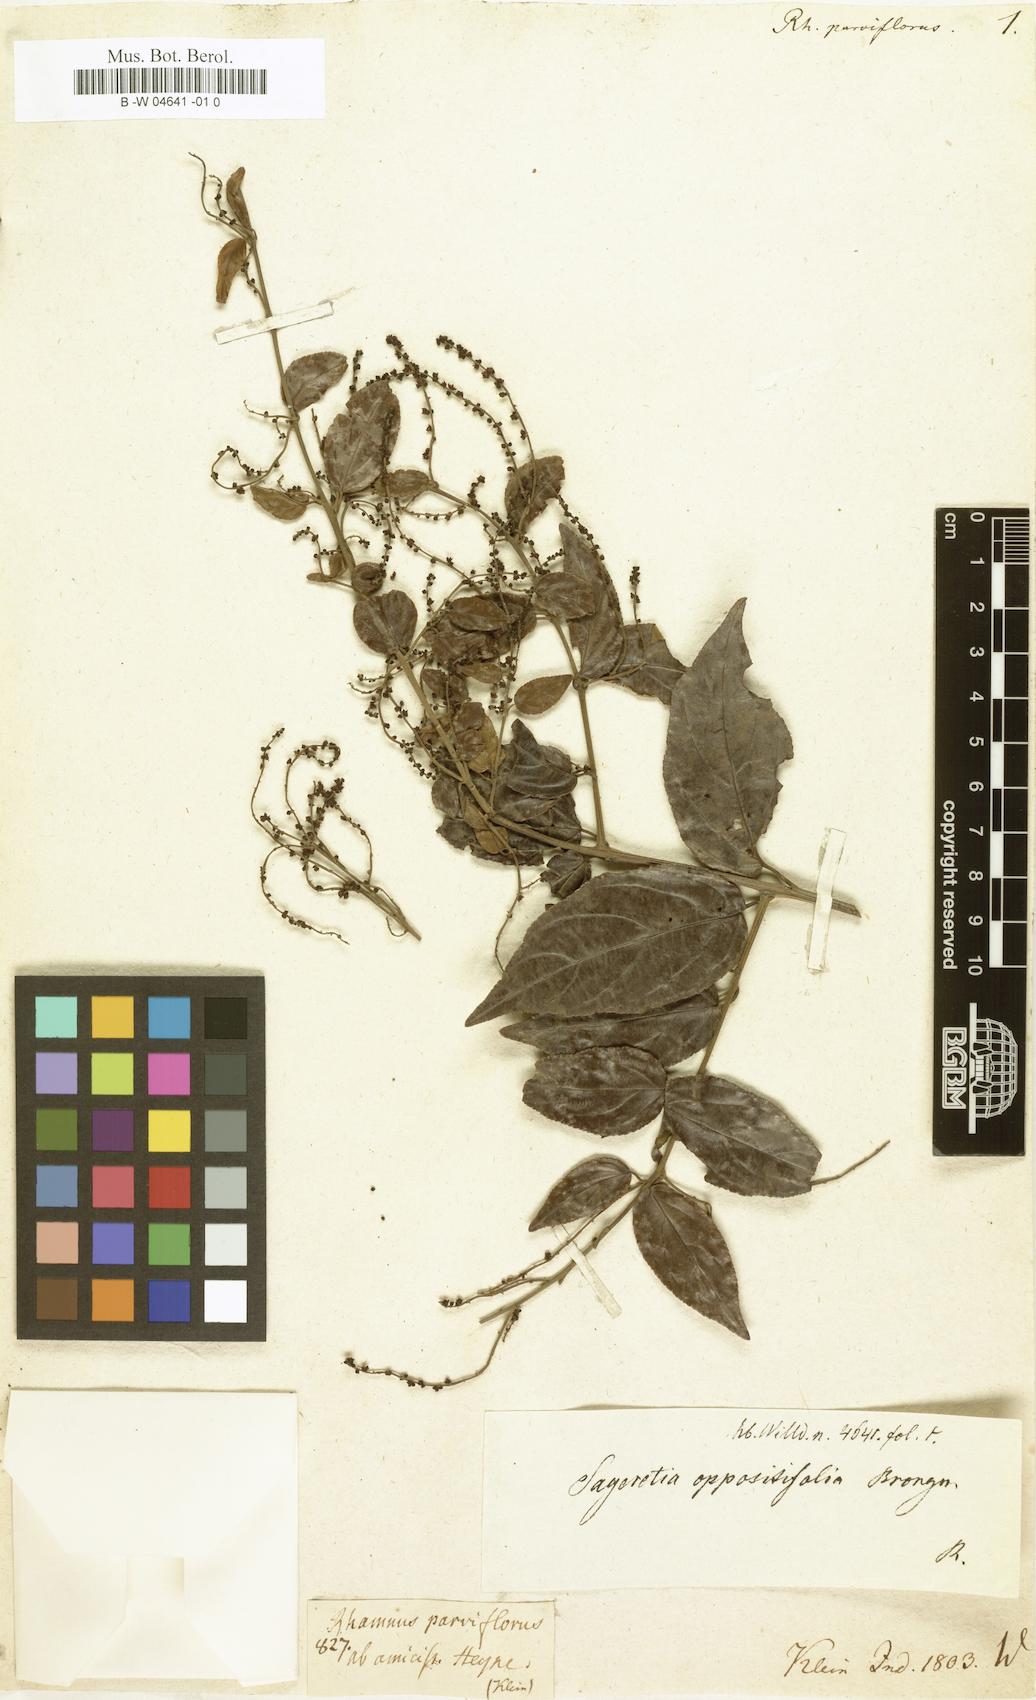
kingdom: Plantae
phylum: Tracheophyta
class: Magnoliopsida
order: Rosales
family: Rhamnaceae
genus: Sageretia
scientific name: Sageretia parviflora
